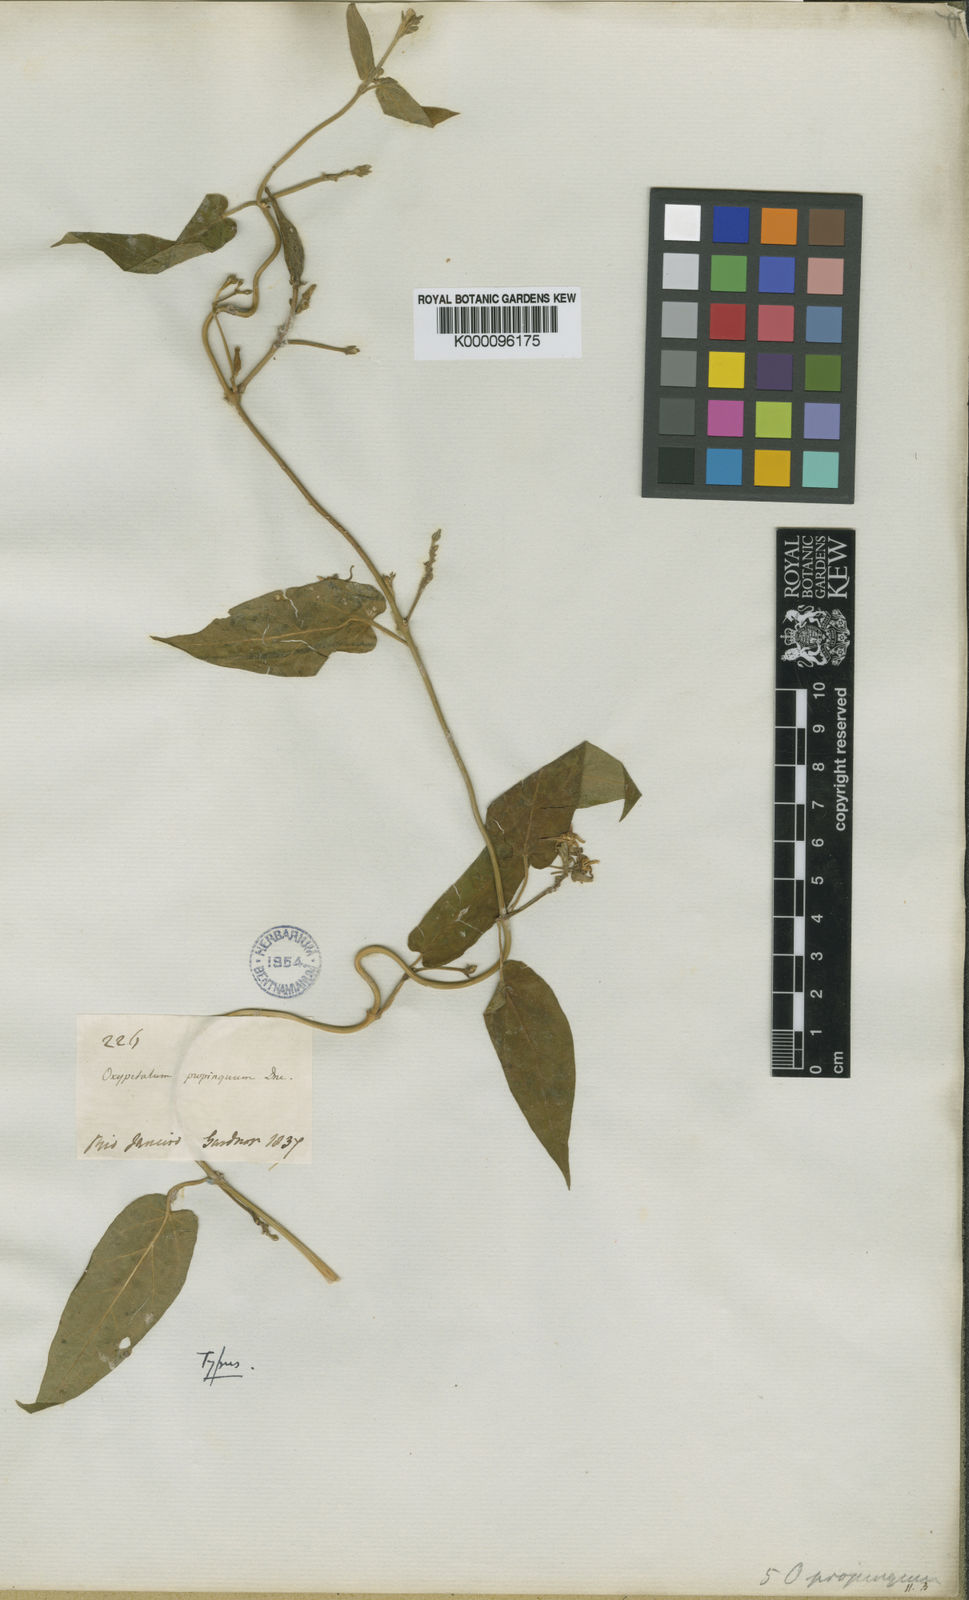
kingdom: Plantae
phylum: Tracheophyta
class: Magnoliopsida
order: Gentianales
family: Apocynaceae
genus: Oxypetalum
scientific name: Oxypetalum pilosum
